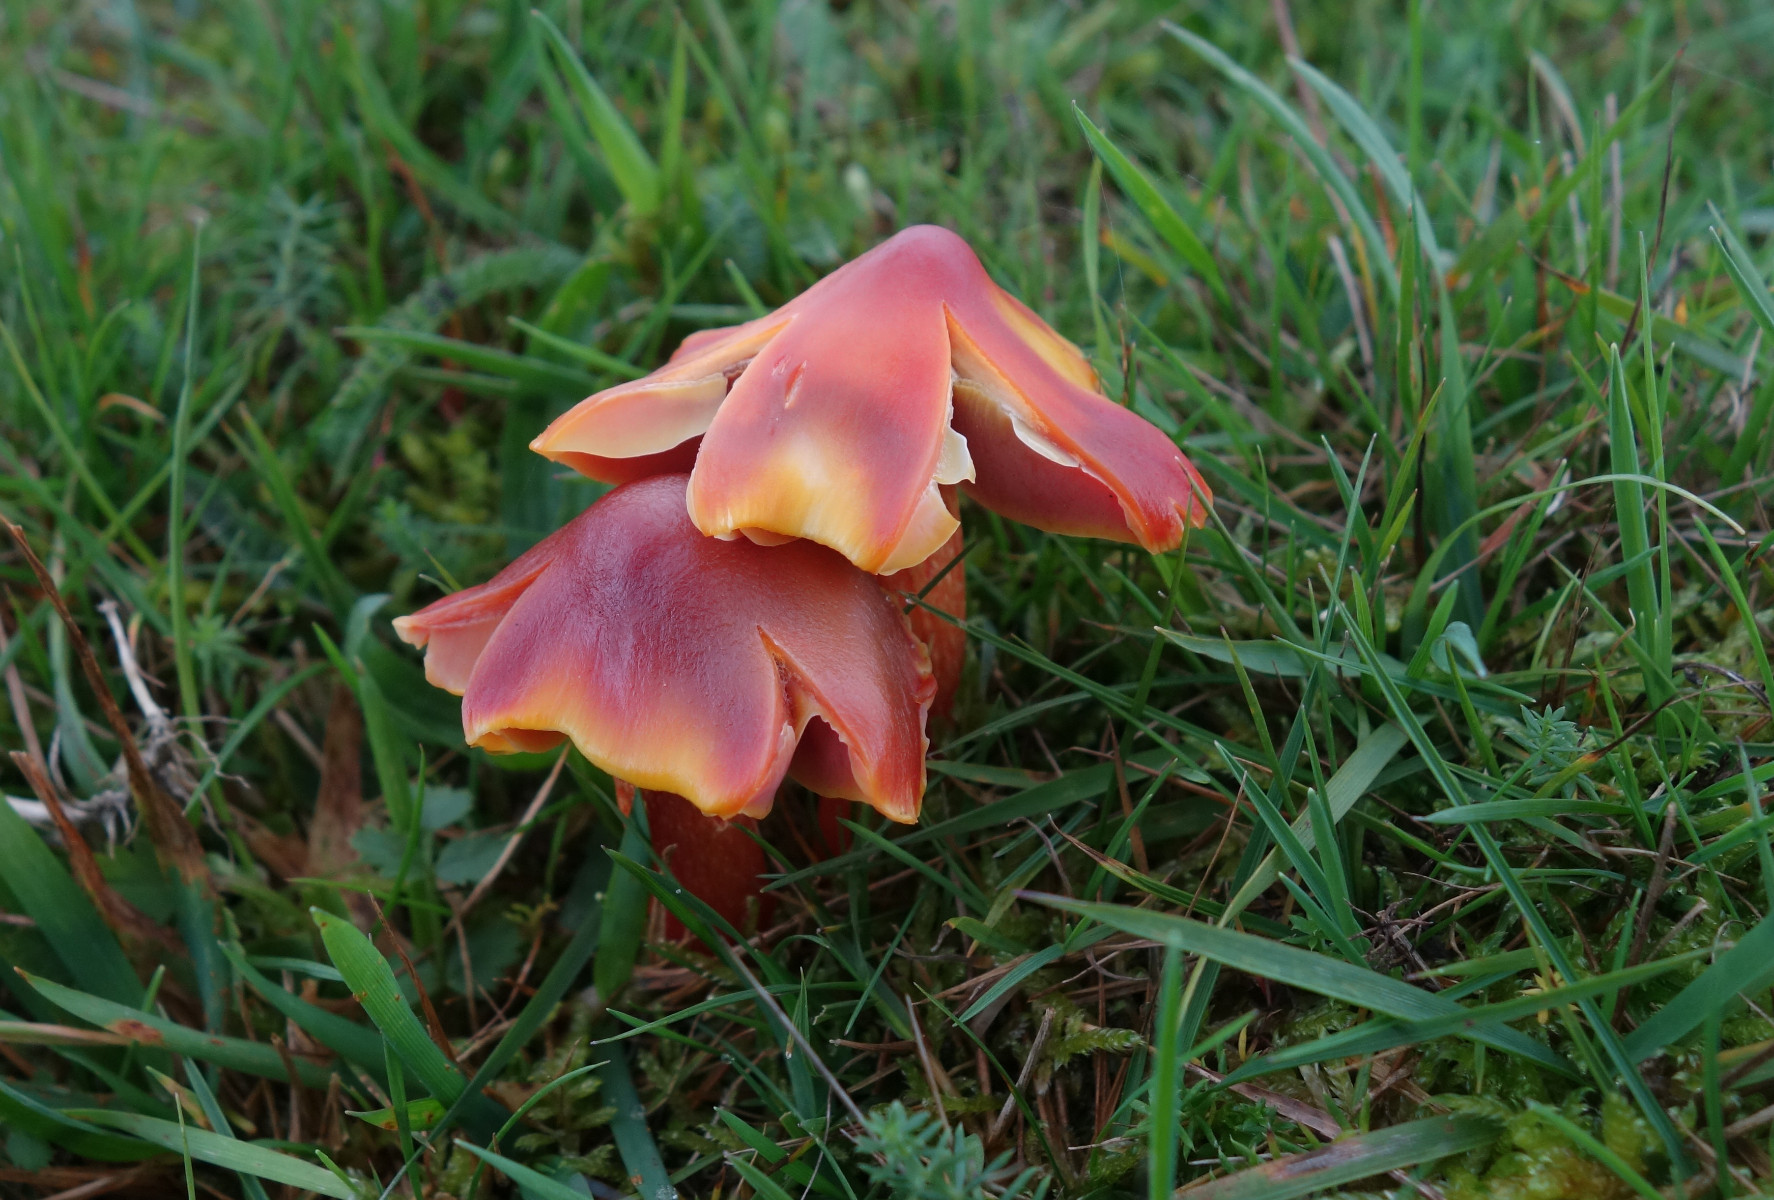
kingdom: Fungi
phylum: Basidiomycota
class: Agaricomycetes
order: Agaricales
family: Hygrophoraceae
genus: Hygrocybe
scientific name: Hygrocybe punicea
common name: skarlagen-vokshat
